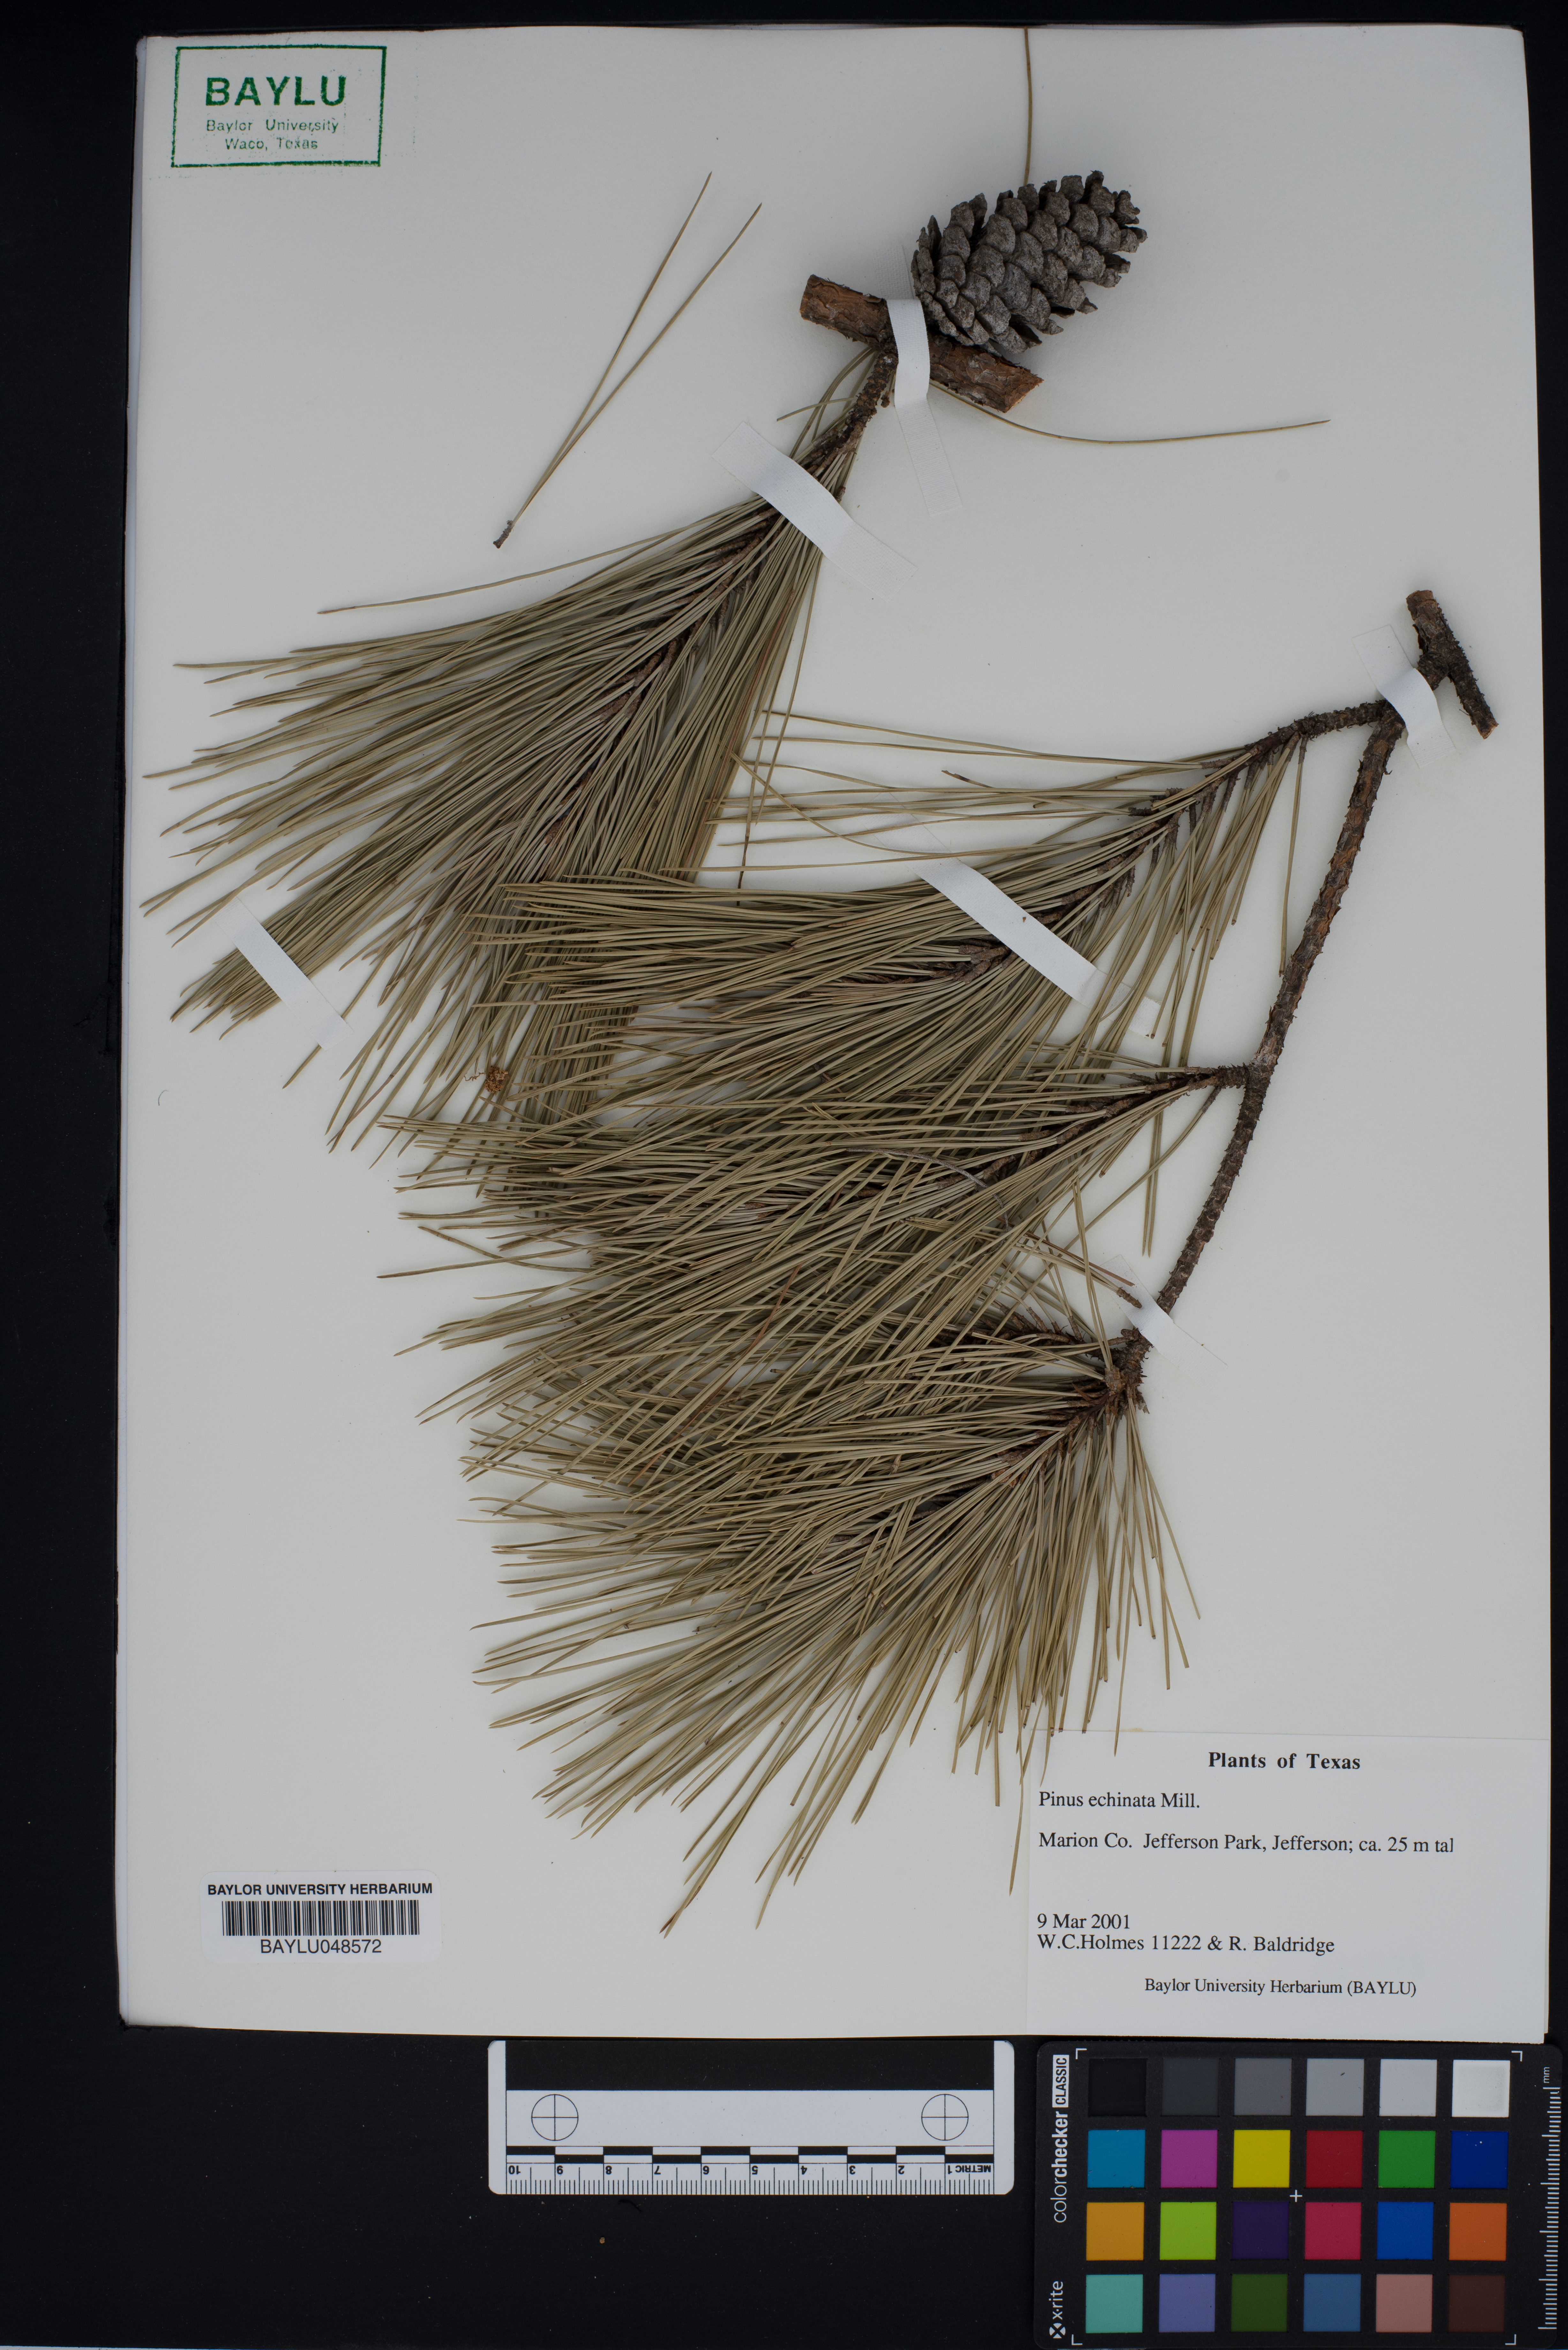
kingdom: Plantae
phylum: Tracheophyta
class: Pinopsida
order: Pinales
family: Pinaceae
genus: Pinus
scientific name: Pinus echinata
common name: Shortleaf pine
